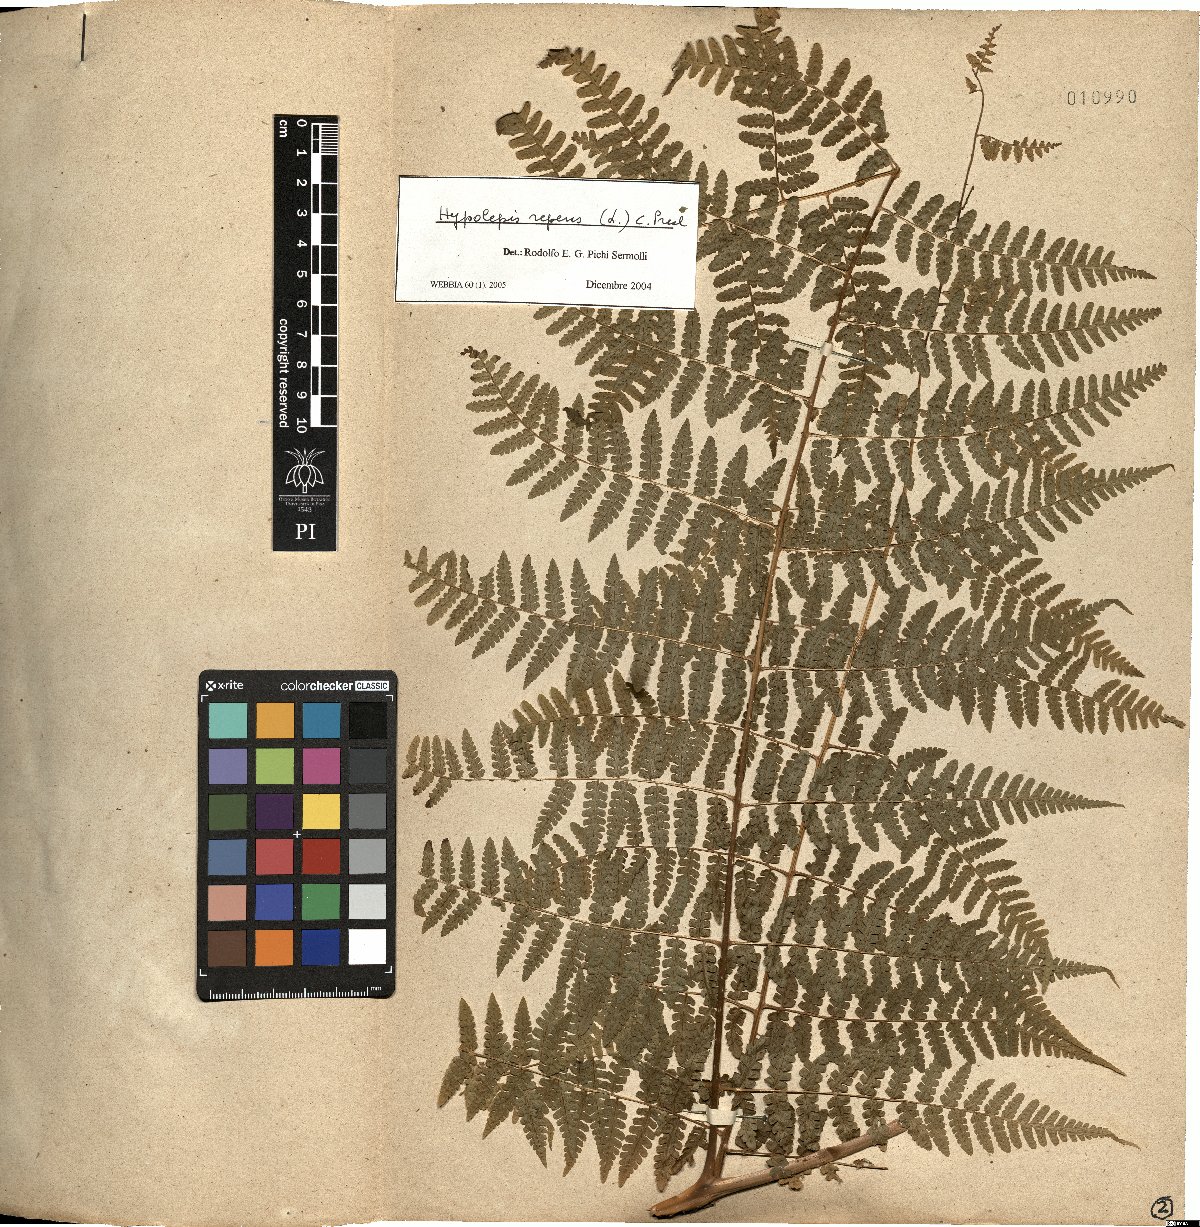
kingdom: Plantae
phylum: Tracheophyta
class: Polypodiopsida
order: Polypodiales
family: Dennstaedtiaceae
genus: Hypolepis
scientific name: Hypolepis repens
